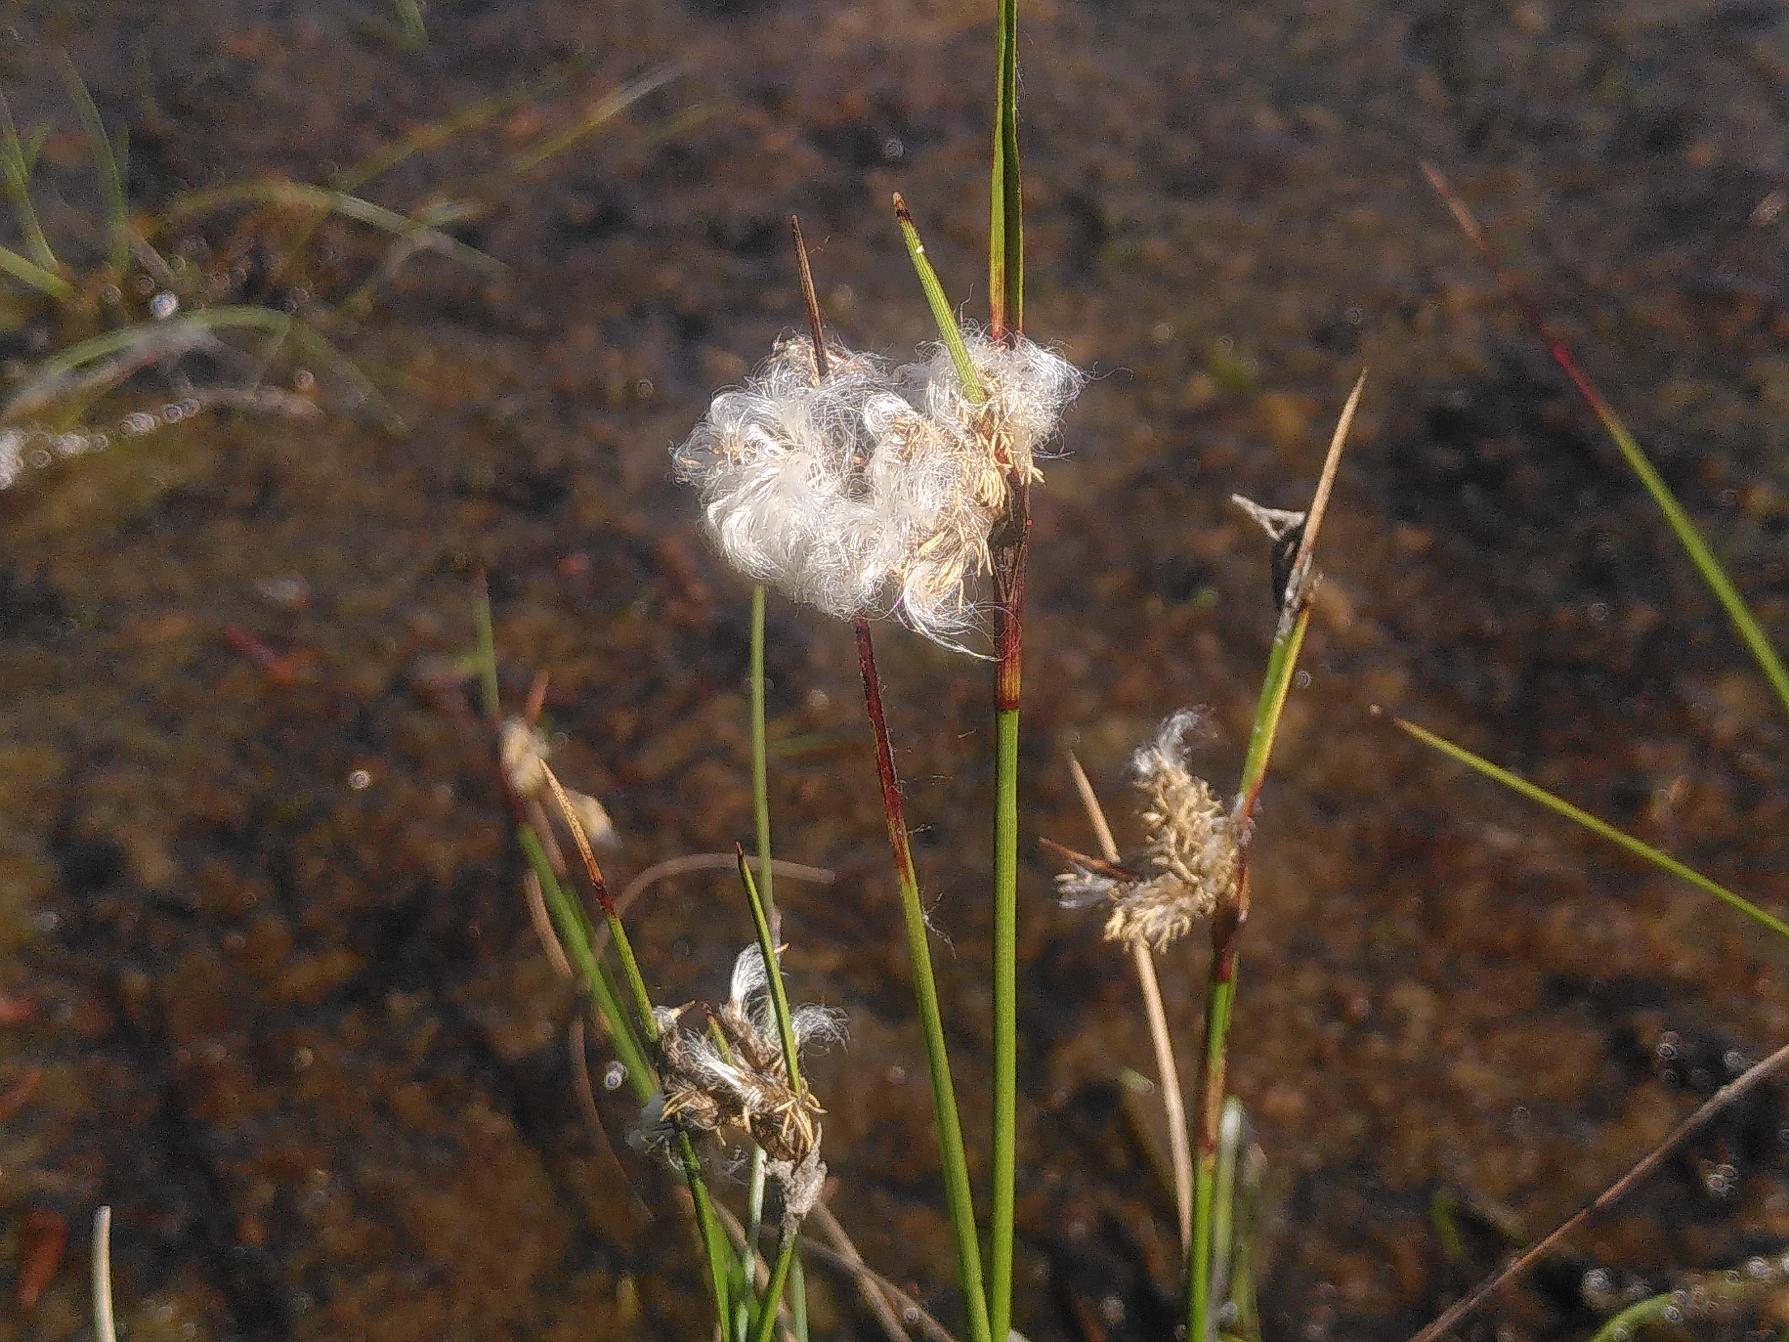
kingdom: Plantae
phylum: Tracheophyta
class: Liliopsida
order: Poales
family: Cyperaceae
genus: Eriophorum
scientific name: Eriophorum angustifolium
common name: Smalbladet kæruld
